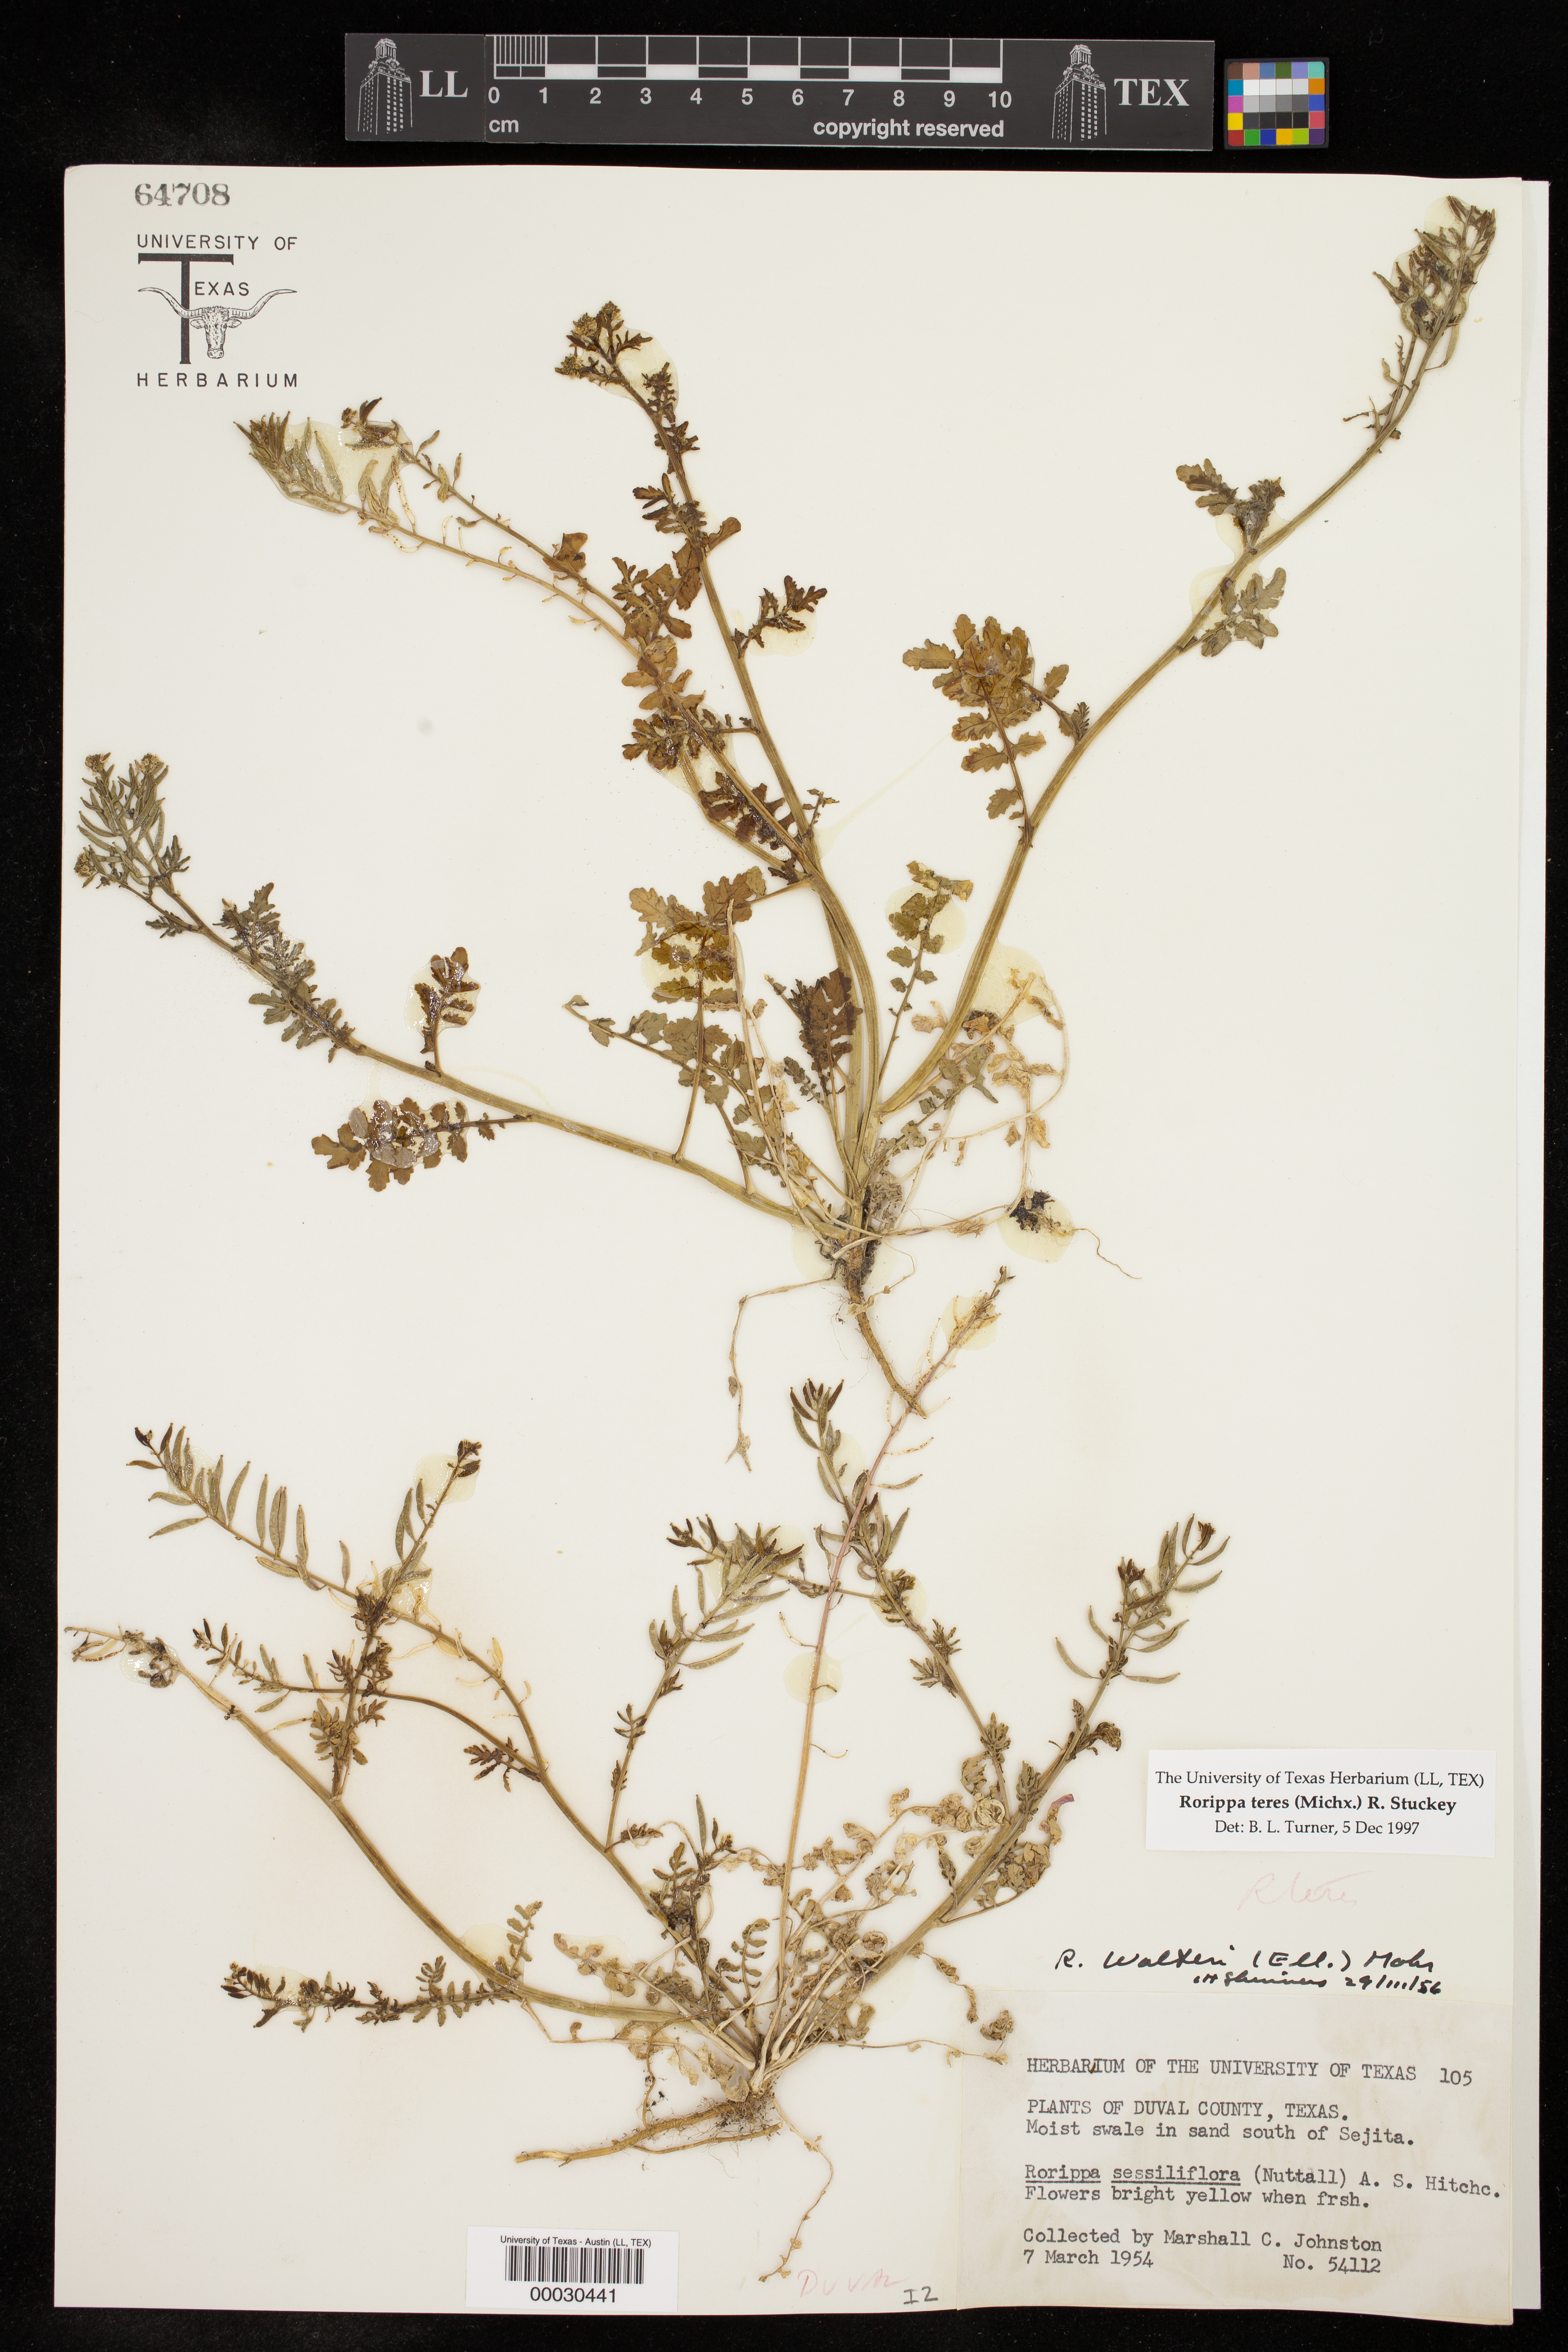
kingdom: Plantae
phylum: Tracheophyta
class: Magnoliopsida
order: Brassicales
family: Brassicaceae
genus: Rorippa
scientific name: Rorippa teres
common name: Southern marsh yellowcress
